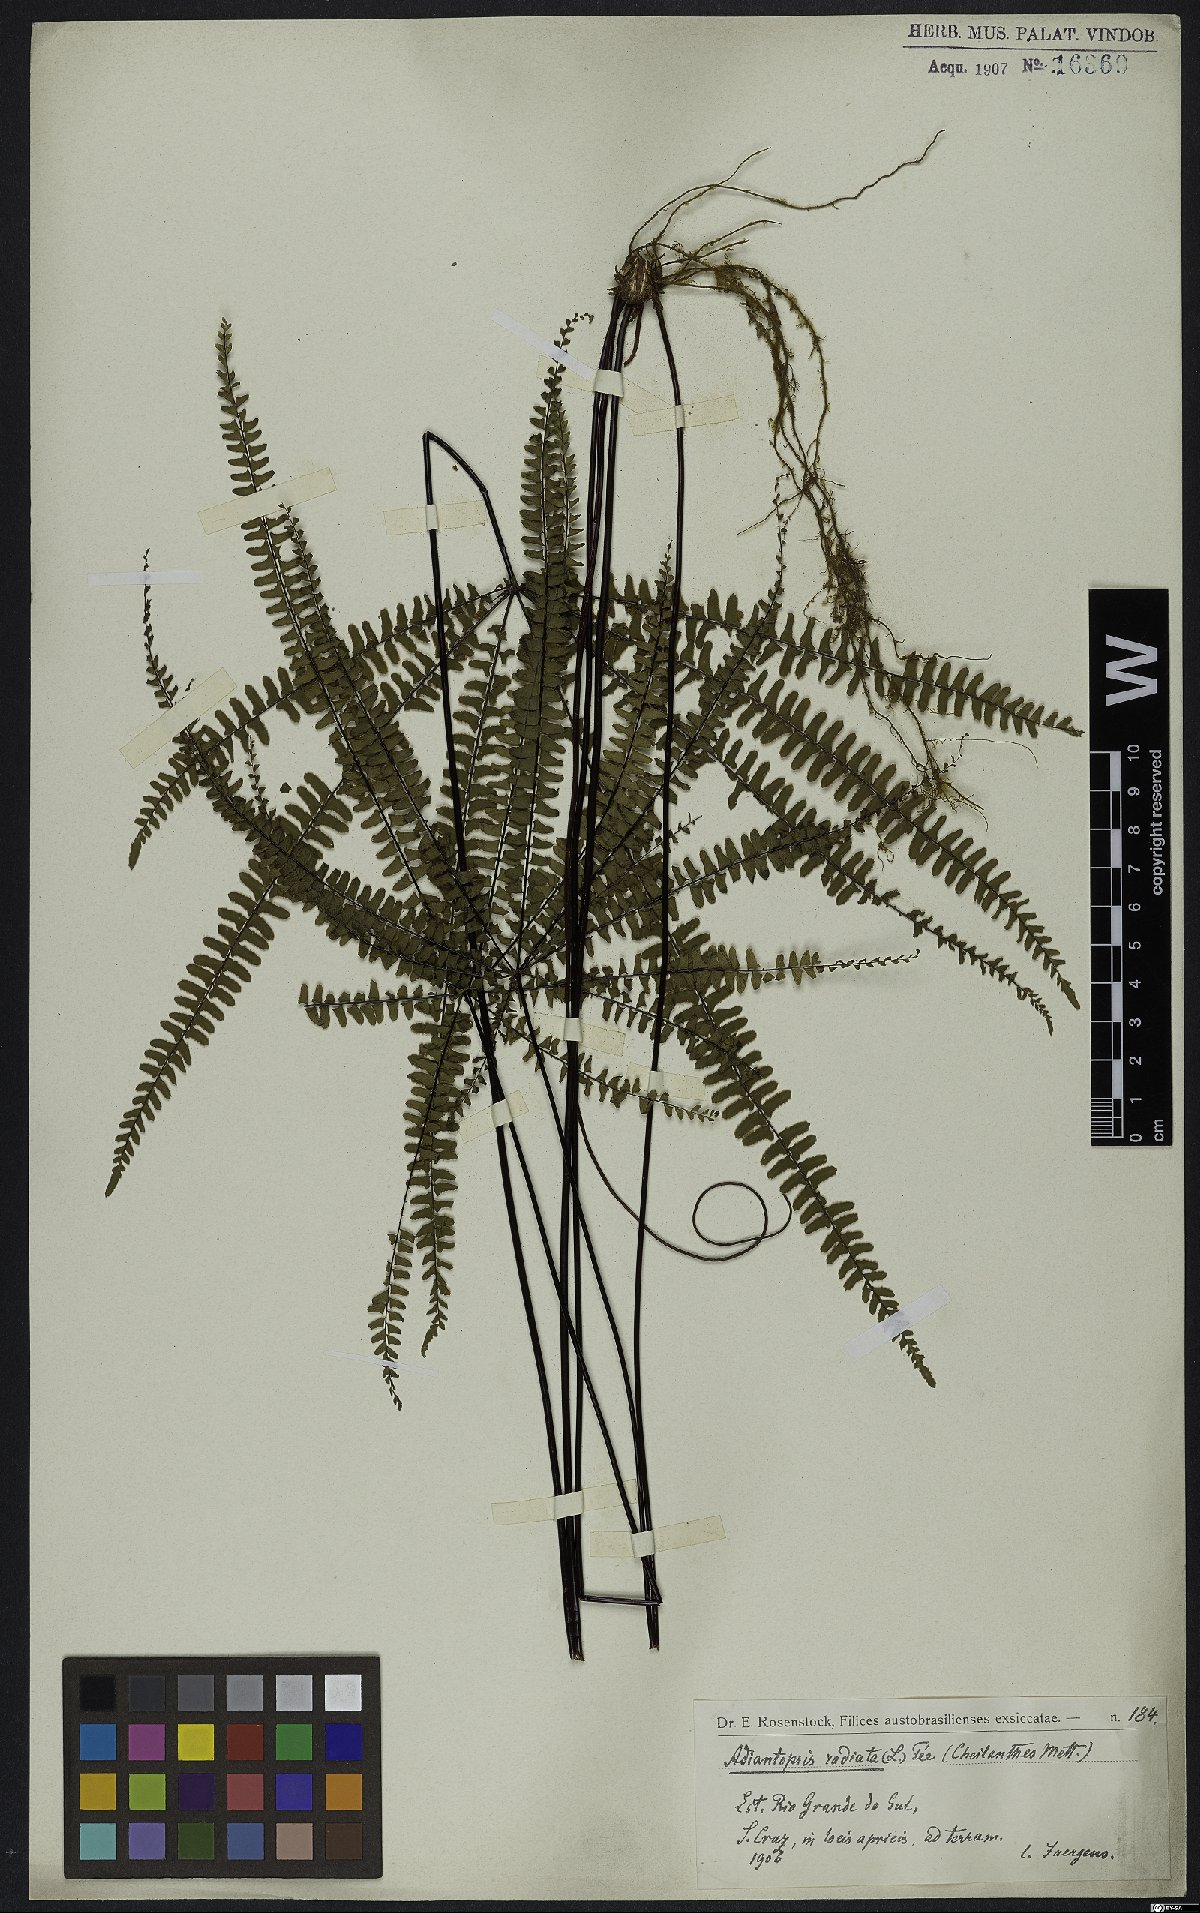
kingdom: Plantae
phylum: Tracheophyta
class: Polypodiopsida
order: Polypodiales
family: Pteridaceae
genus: Adiantopsis
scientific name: Adiantopsis radiata
